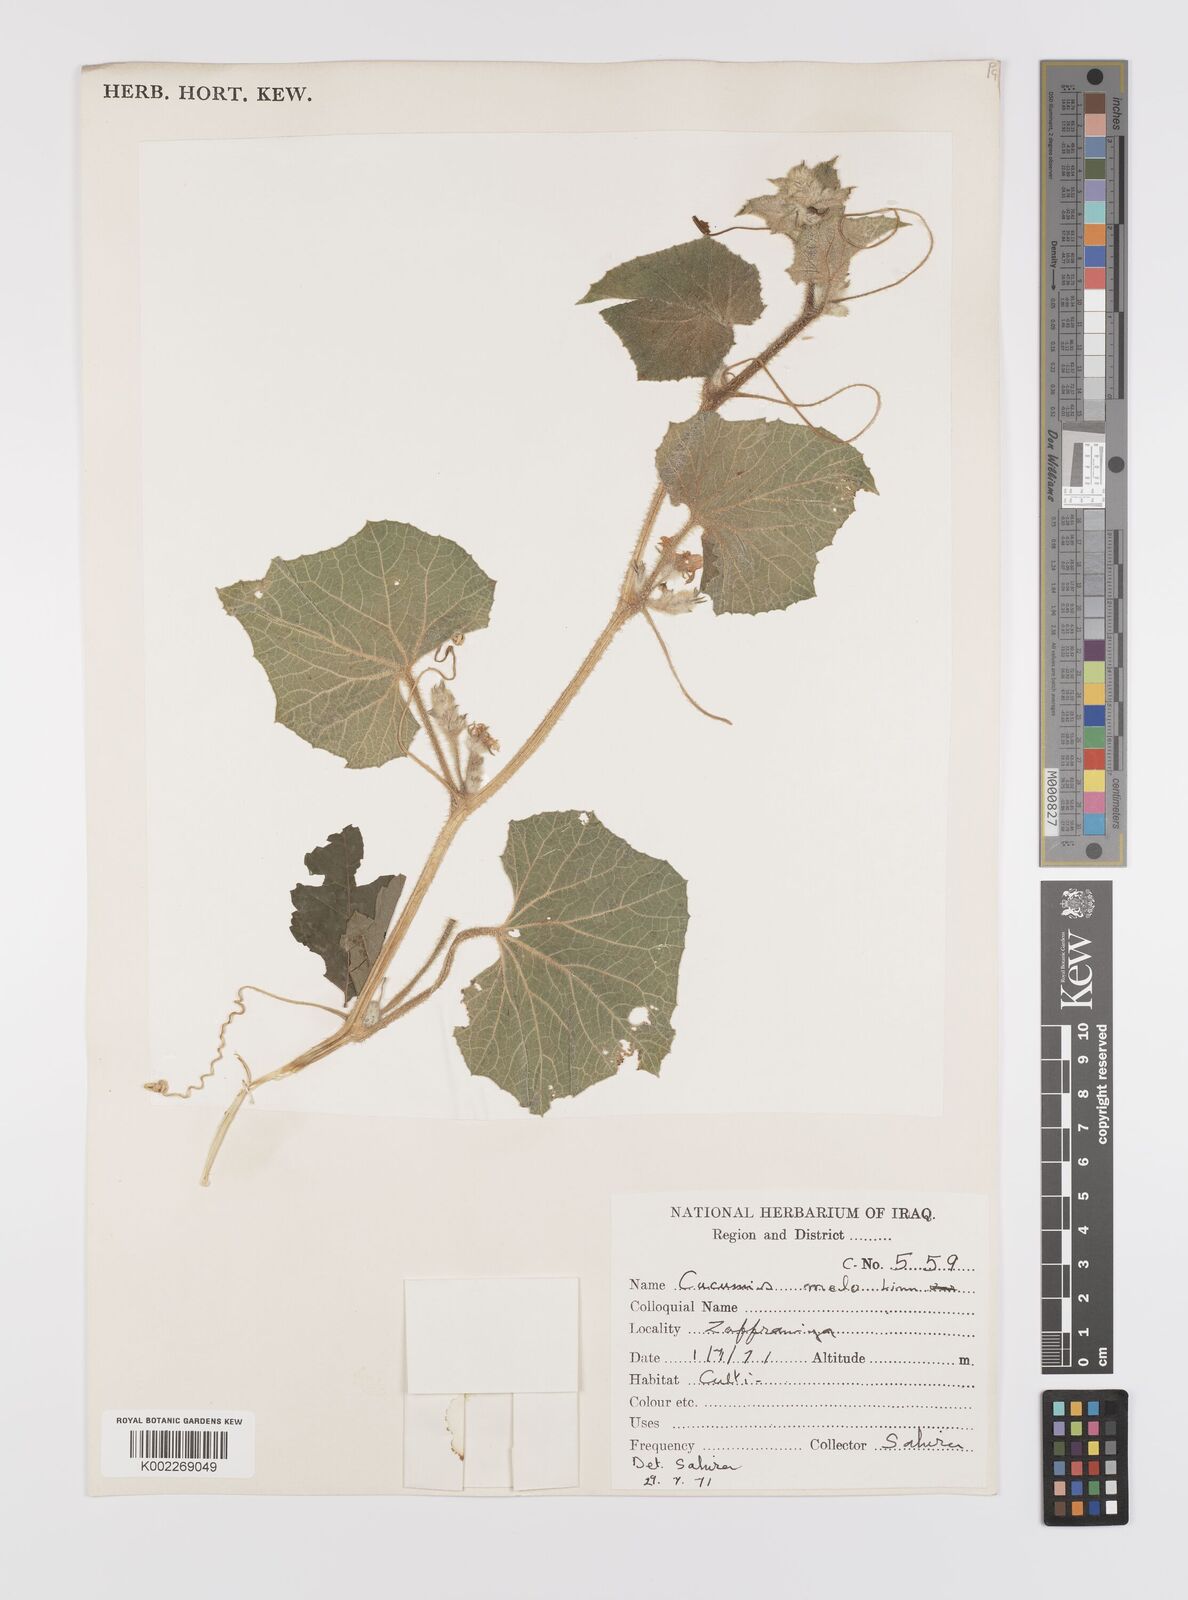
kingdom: Plantae
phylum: Tracheophyta
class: Magnoliopsida
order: Cucurbitales
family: Cucurbitaceae
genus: Cucumis
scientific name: Cucumis melo
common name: Melon
